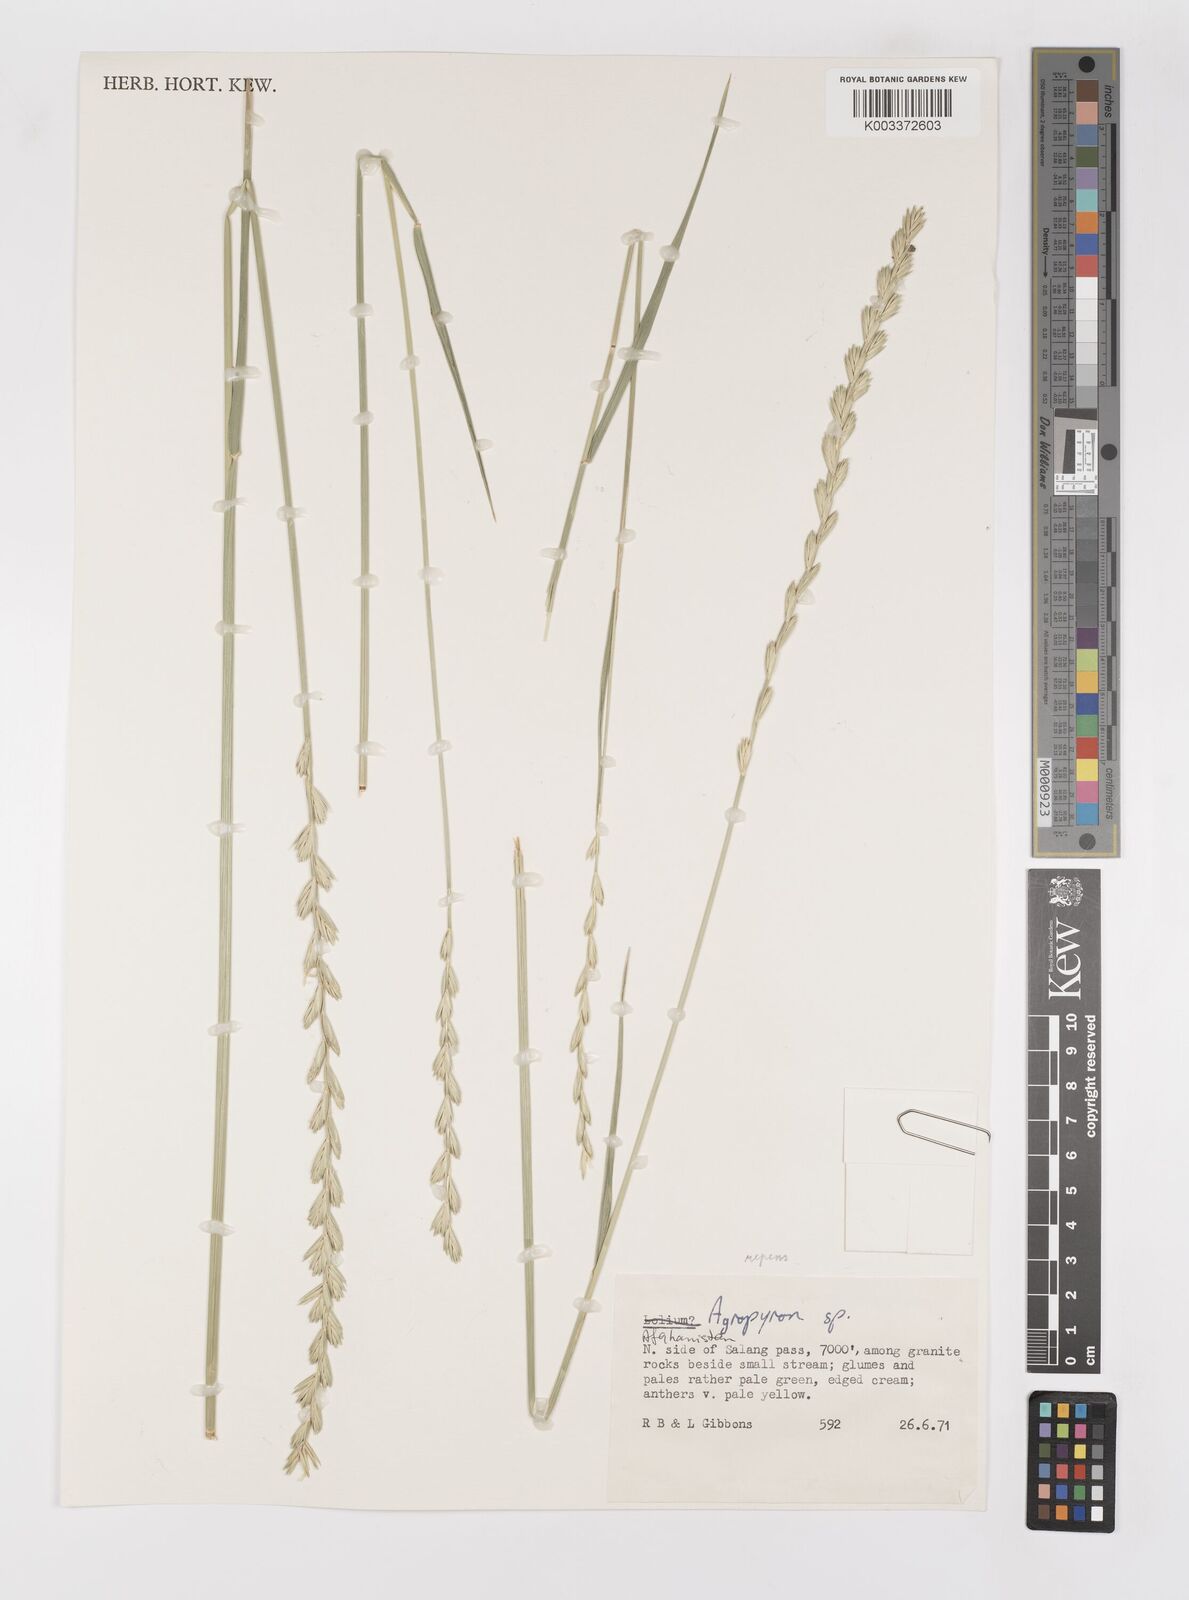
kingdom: Plantae
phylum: Tracheophyta
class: Liliopsida
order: Poales
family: Poaceae
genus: Elymus
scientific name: Elymus
